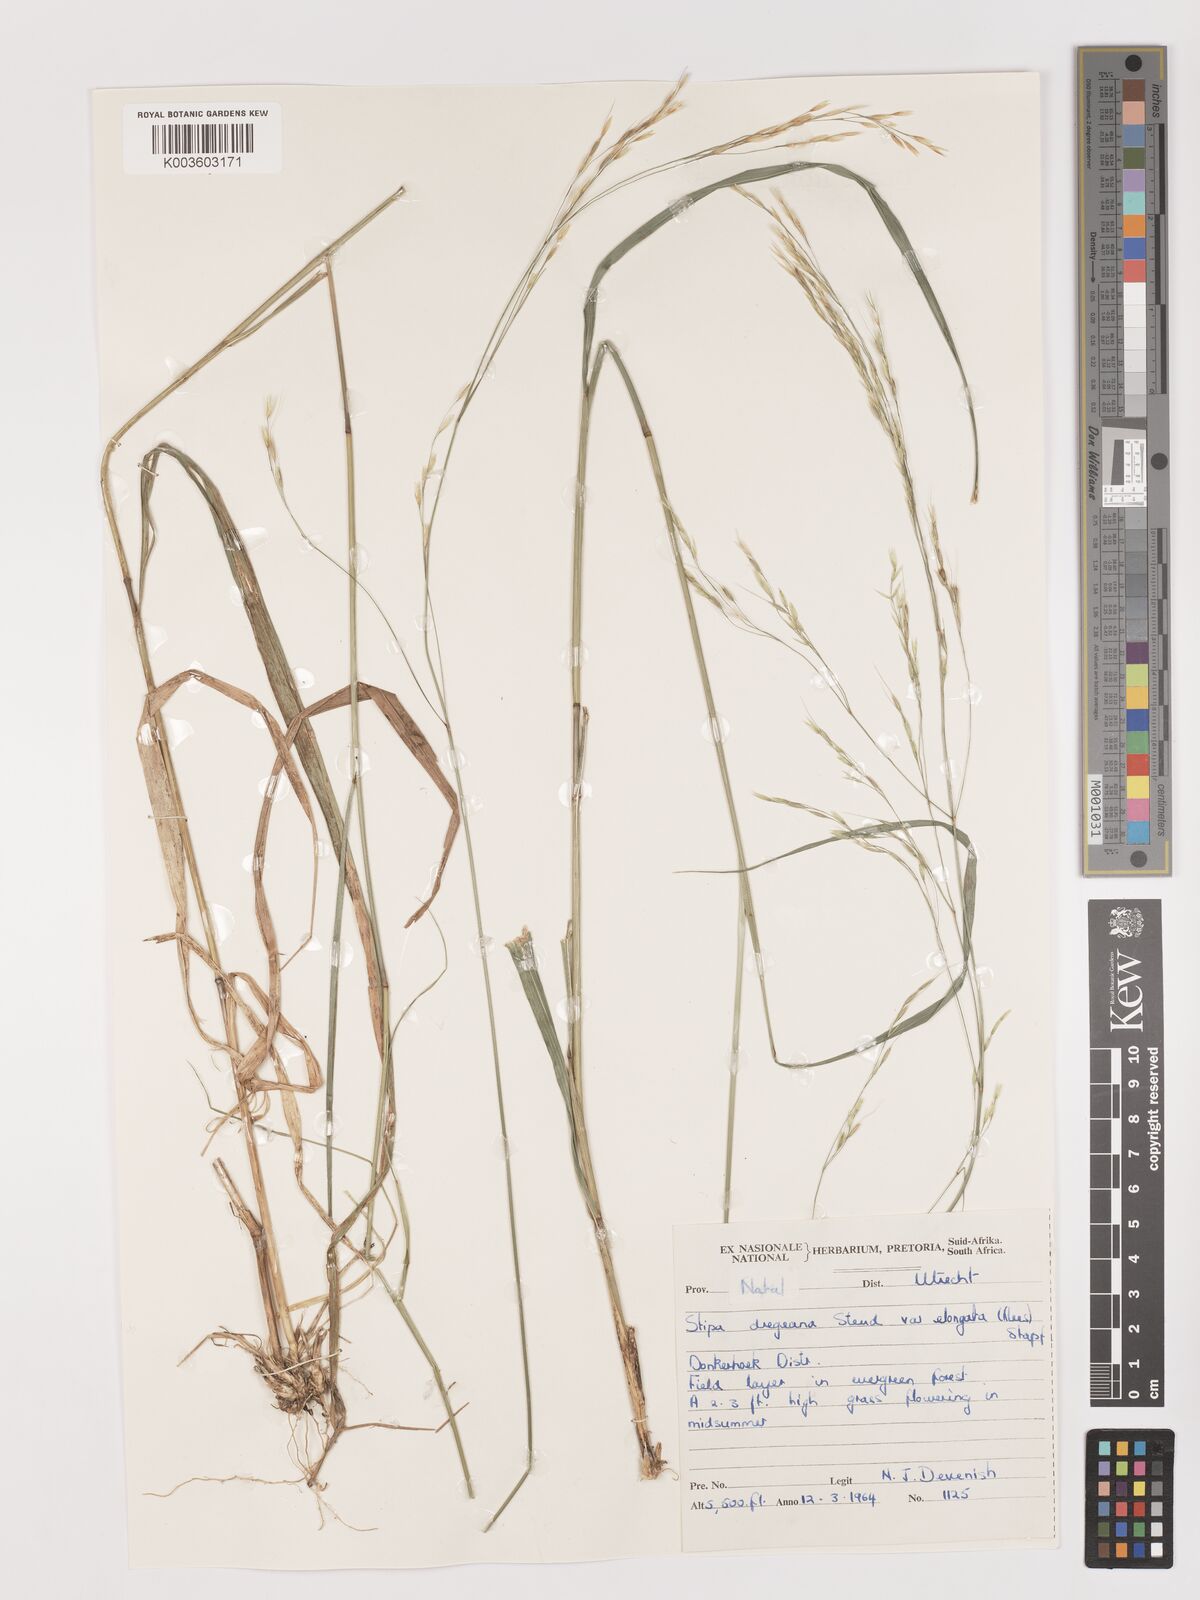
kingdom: Plantae
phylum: Tracheophyta
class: Liliopsida
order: Poales
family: Poaceae
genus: Stipa
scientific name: Stipa dregeana
